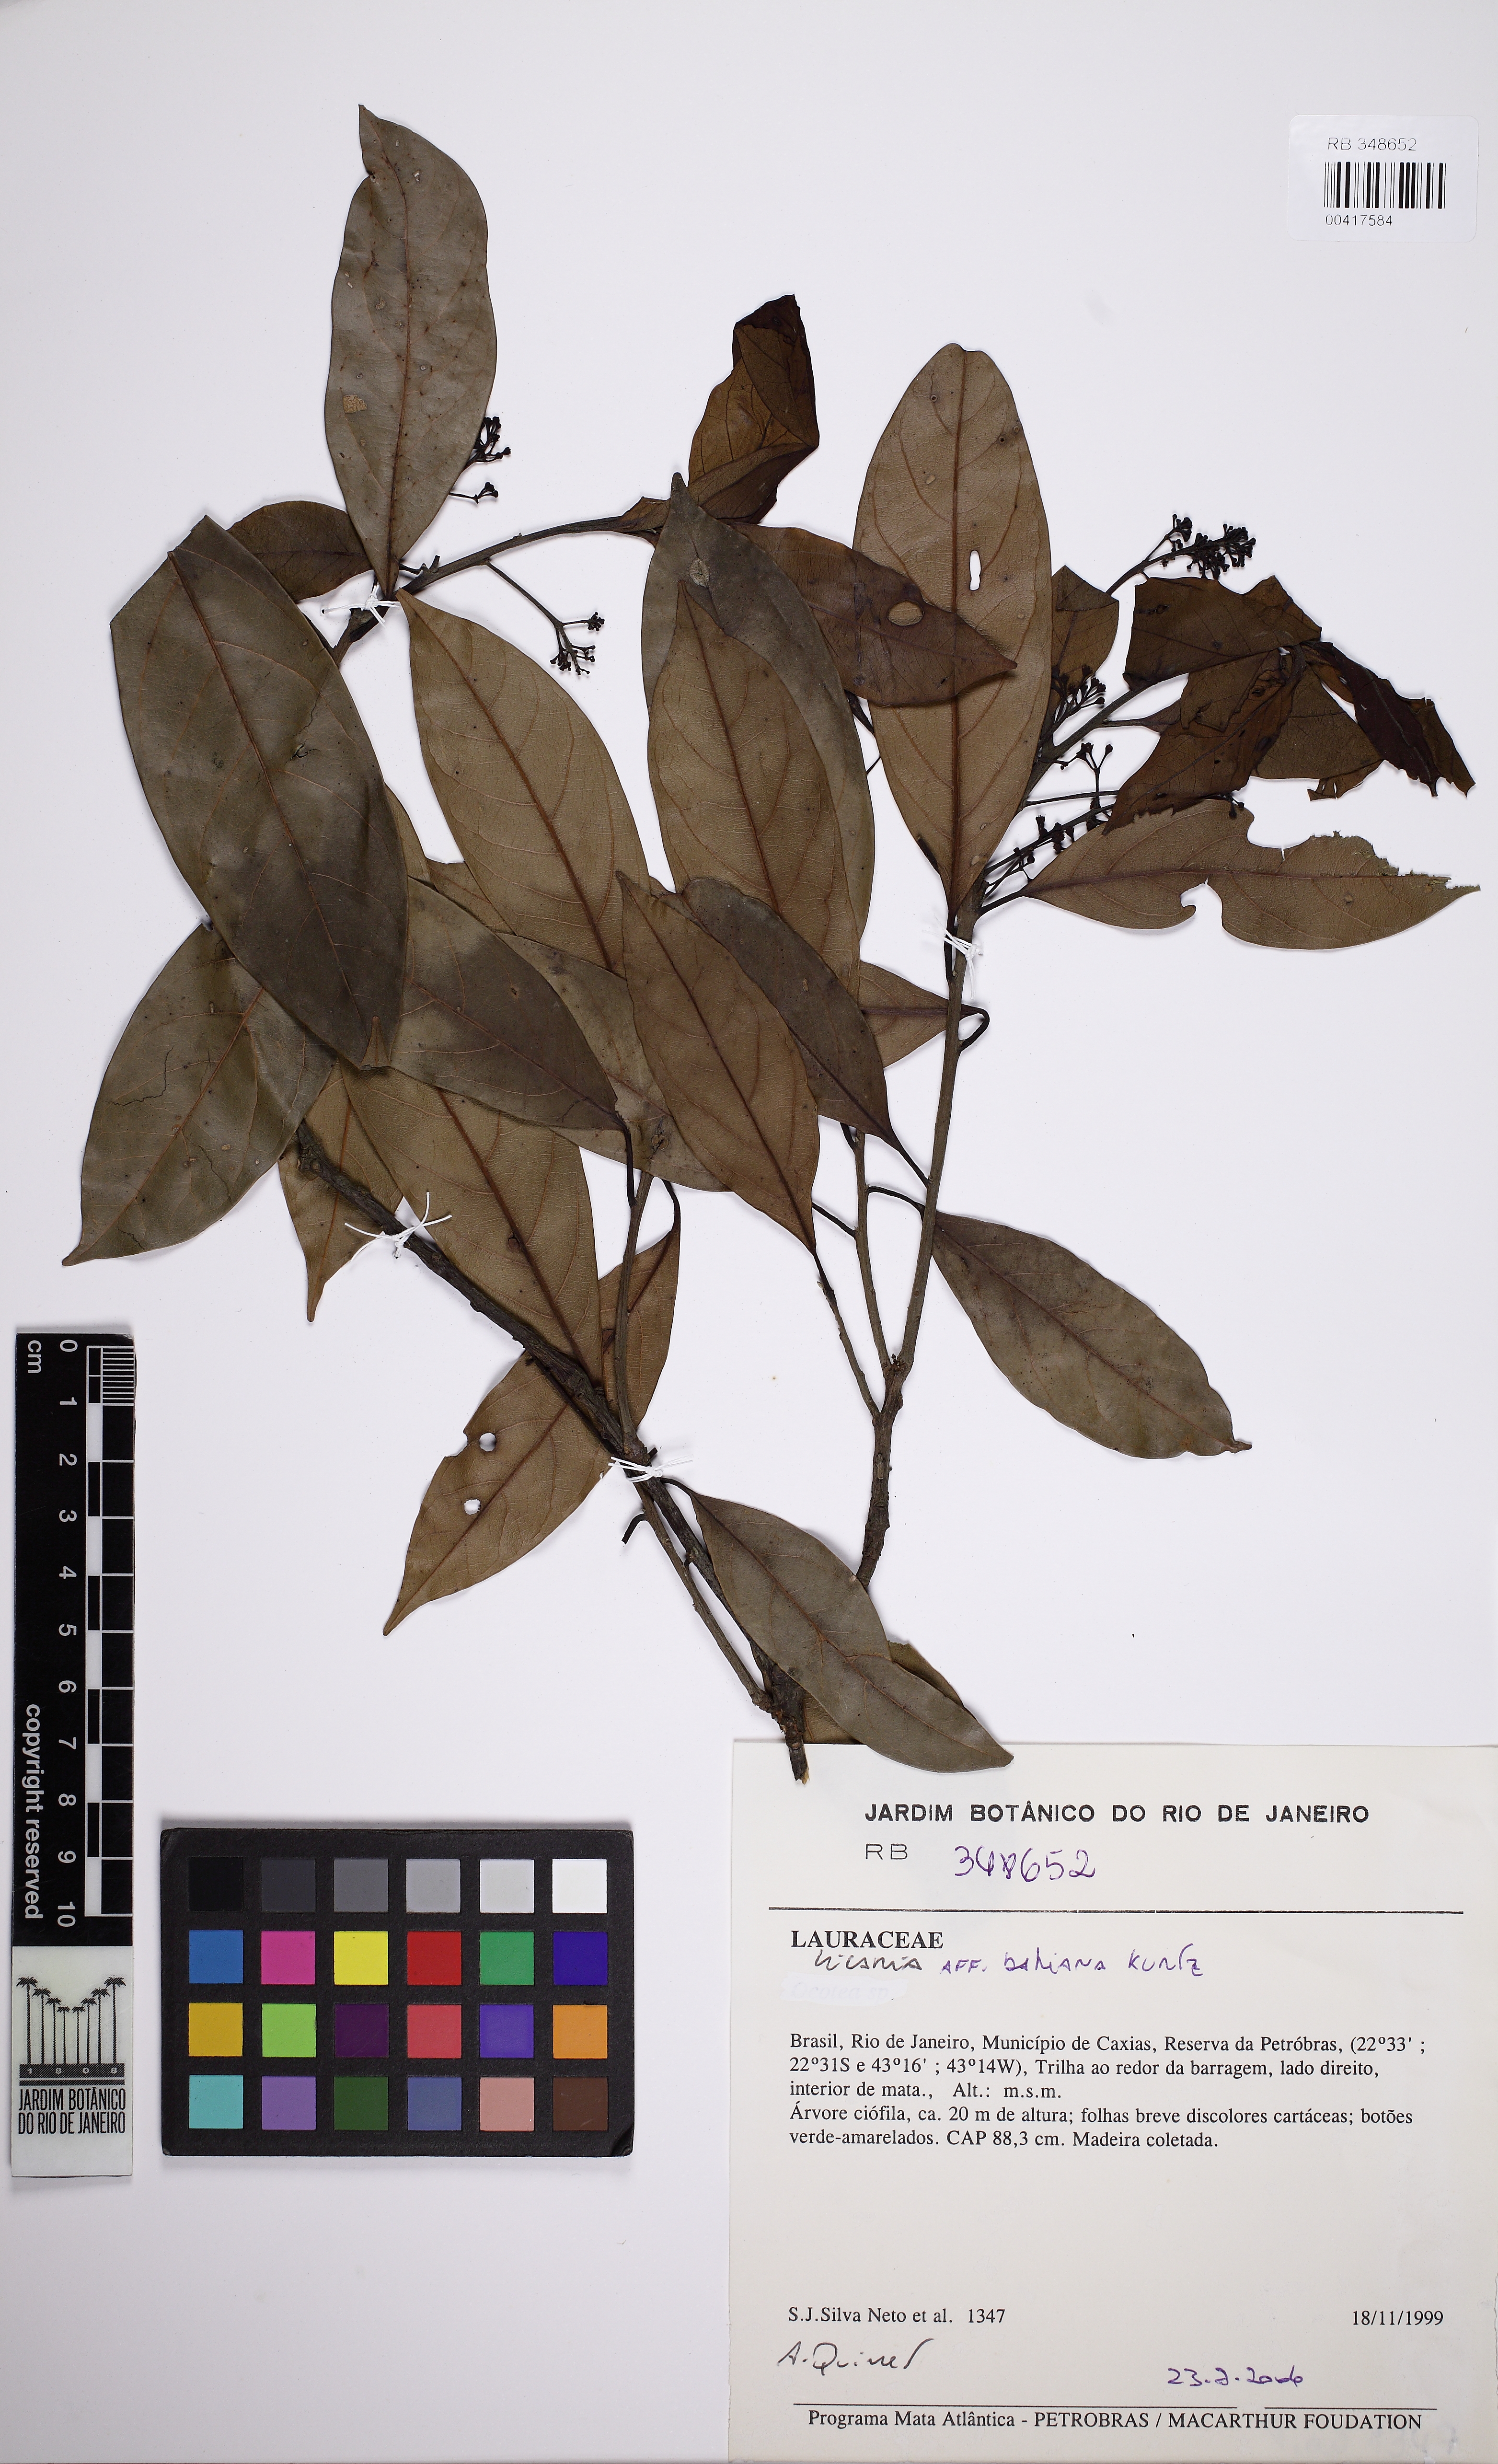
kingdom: Plantae
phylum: Tracheophyta
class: Magnoliopsida
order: Laurales
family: Lauraceae
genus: Licaria
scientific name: Licaria bahiana
